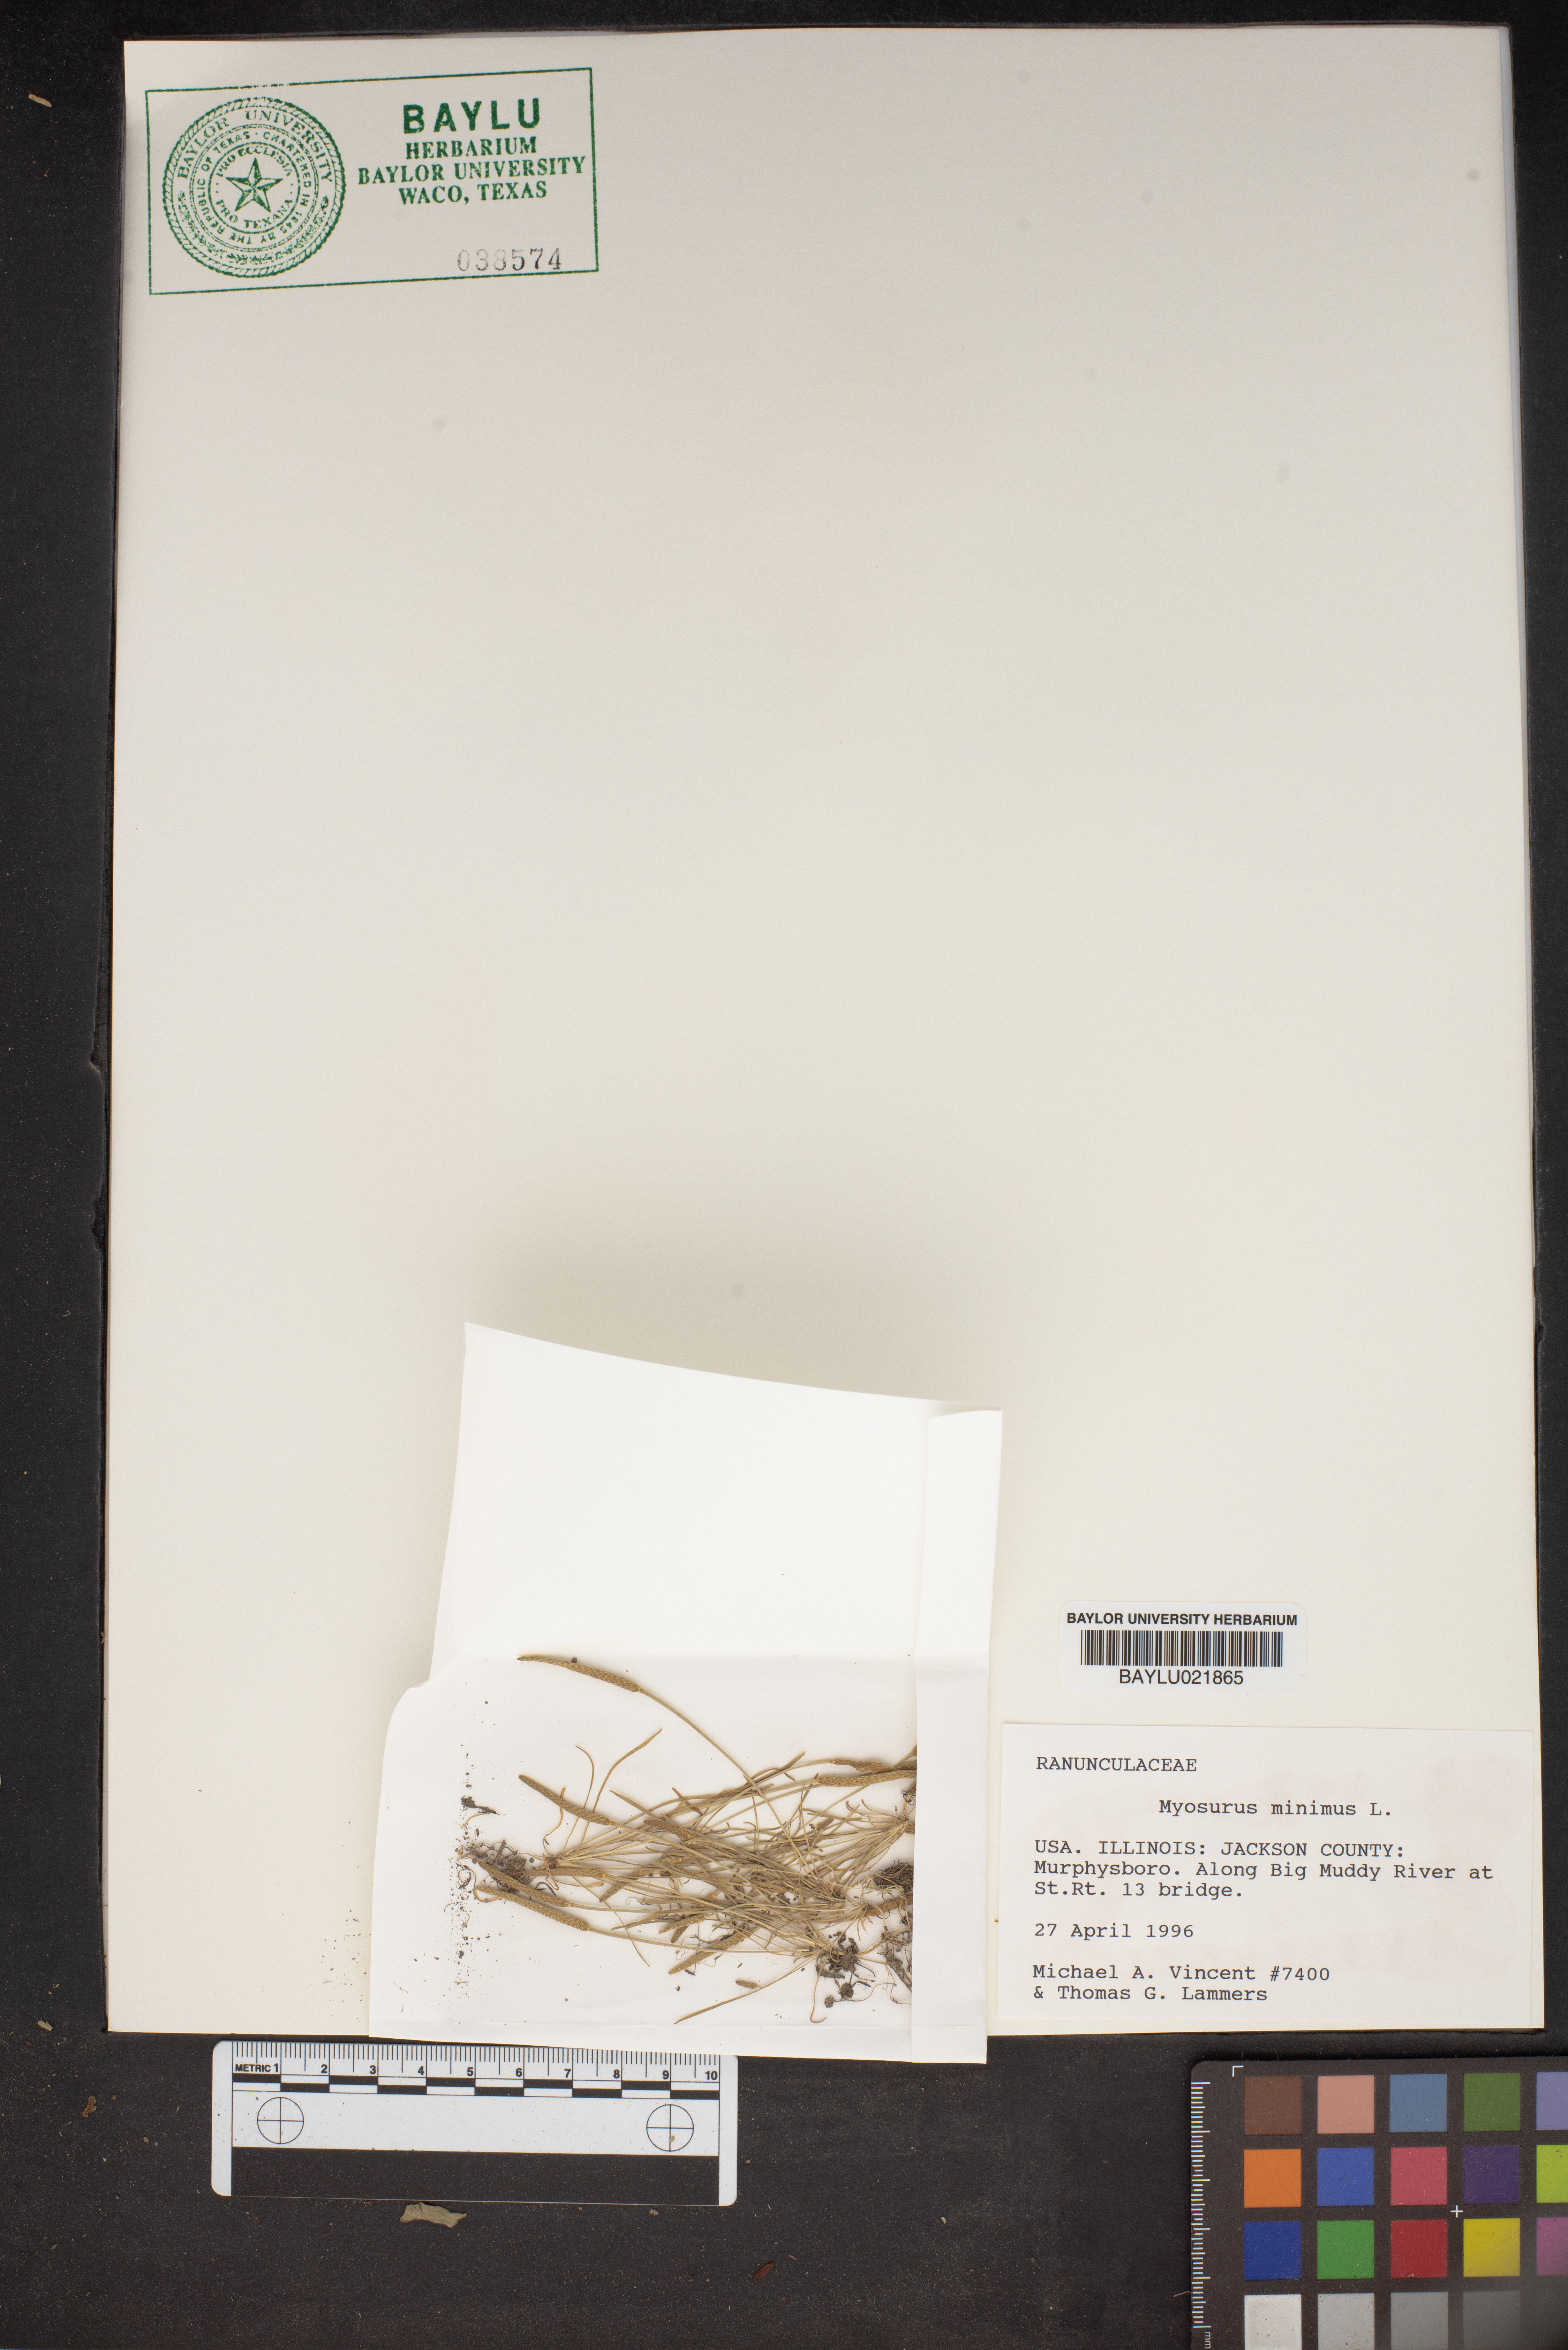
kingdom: Plantae
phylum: Tracheophyta
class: Magnoliopsida
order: Ranunculales
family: Ranunculaceae
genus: Myosurus
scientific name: Myosurus minimus
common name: Mousetail
